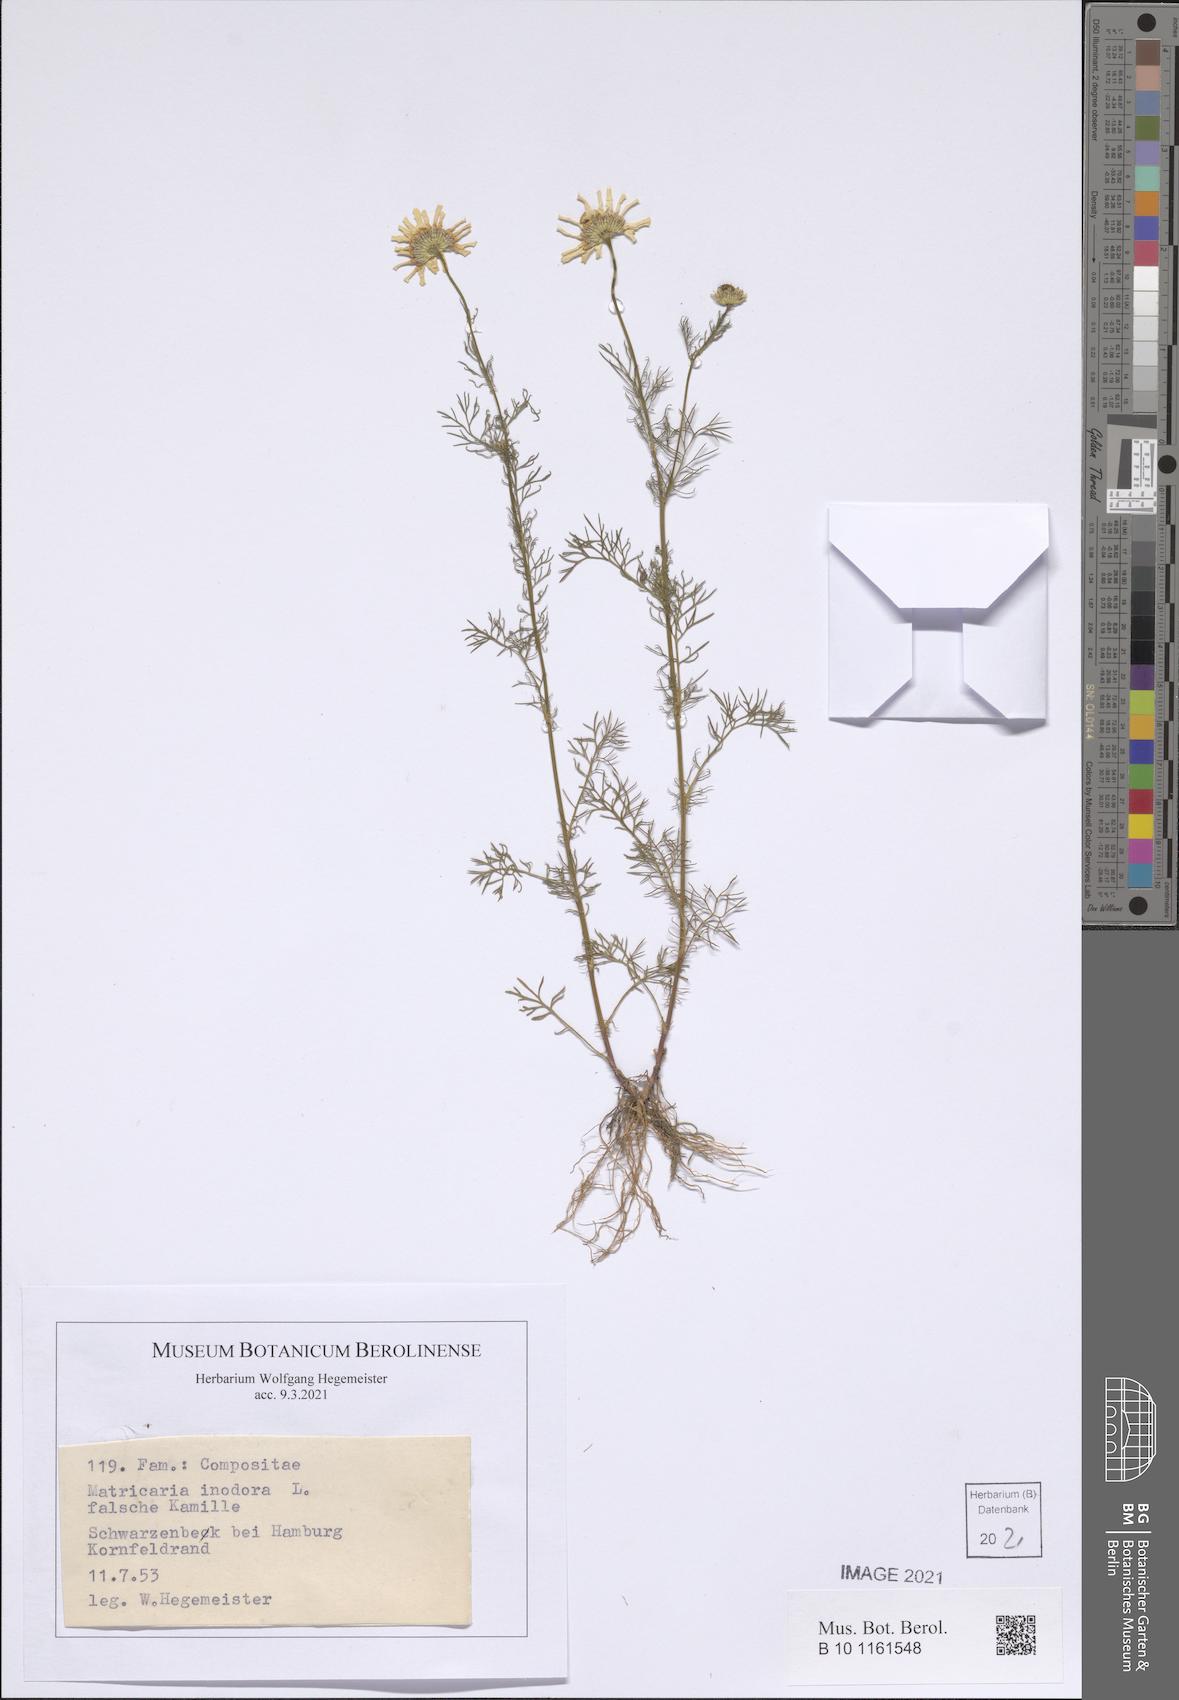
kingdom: Plantae
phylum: Tracheophyta
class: Magnoliopsida
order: Asterales
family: Asteraceae
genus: Tripleurospermum
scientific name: Tripleurospermum inodorum
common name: Scentless mayweed
